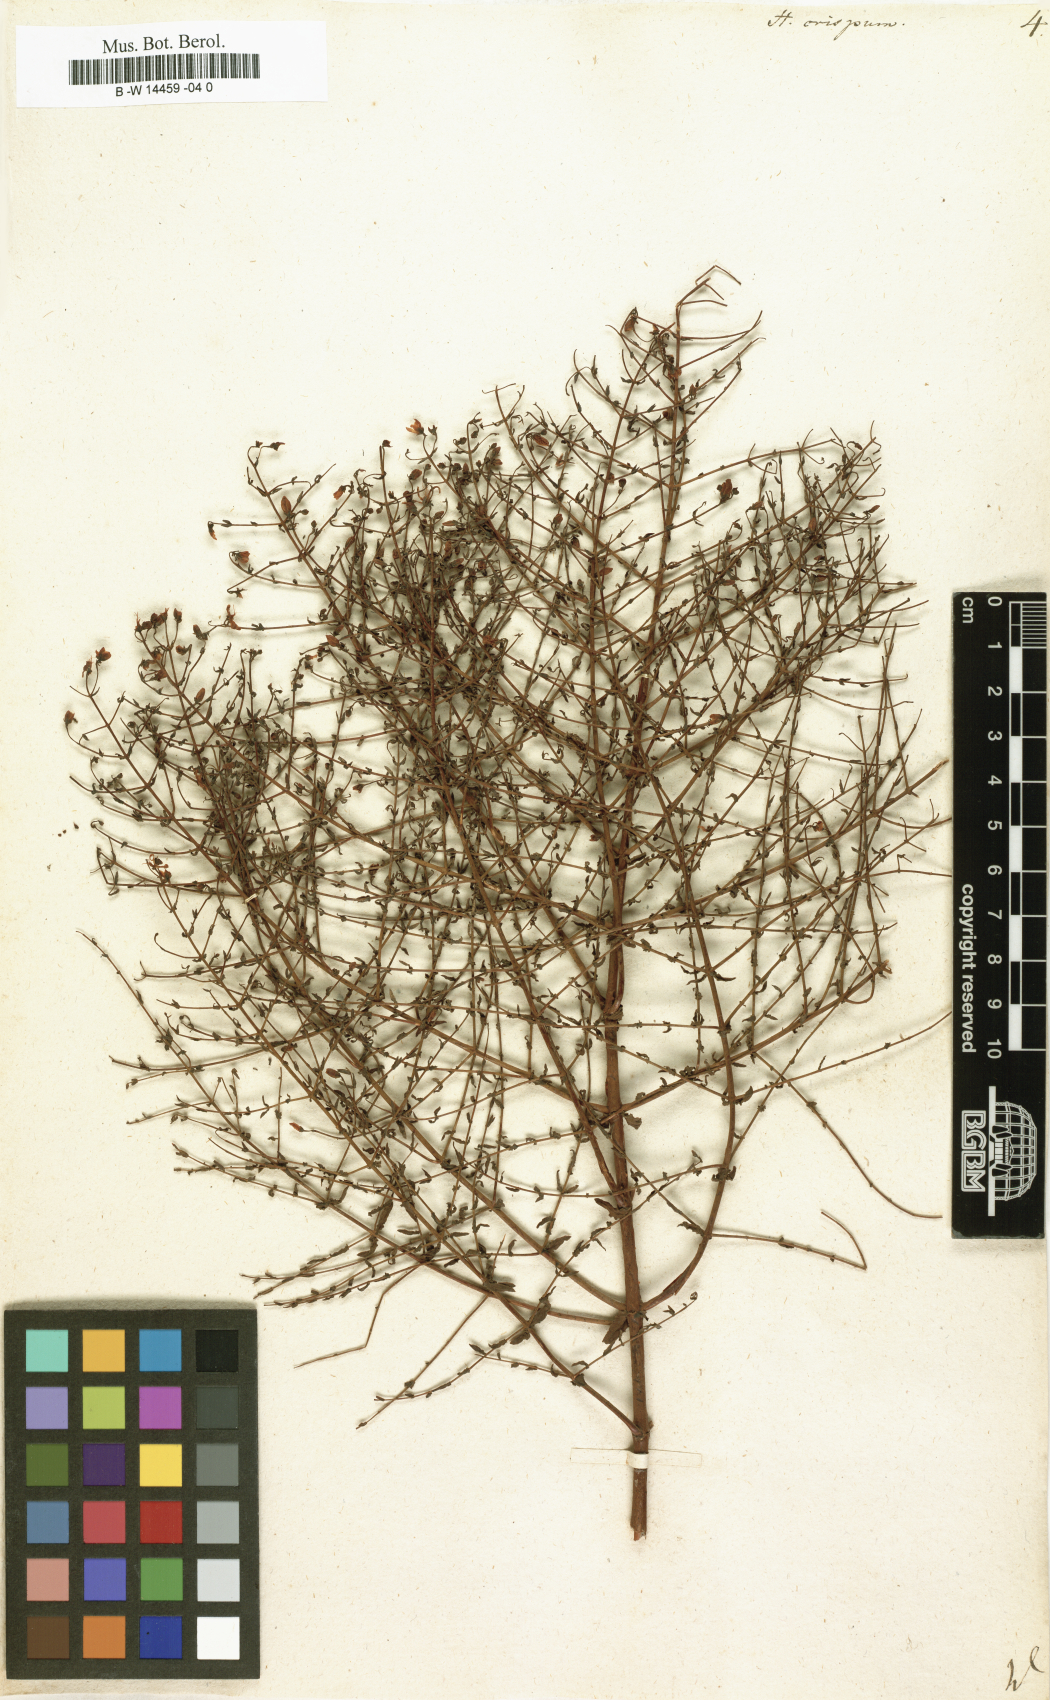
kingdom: Plantae
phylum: Tracheophyta
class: Magnoliopsida
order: Malpighiales
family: Hypericaceae
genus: Hypericum
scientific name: Hypericum triquetrifolium
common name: Tangled hypericum
